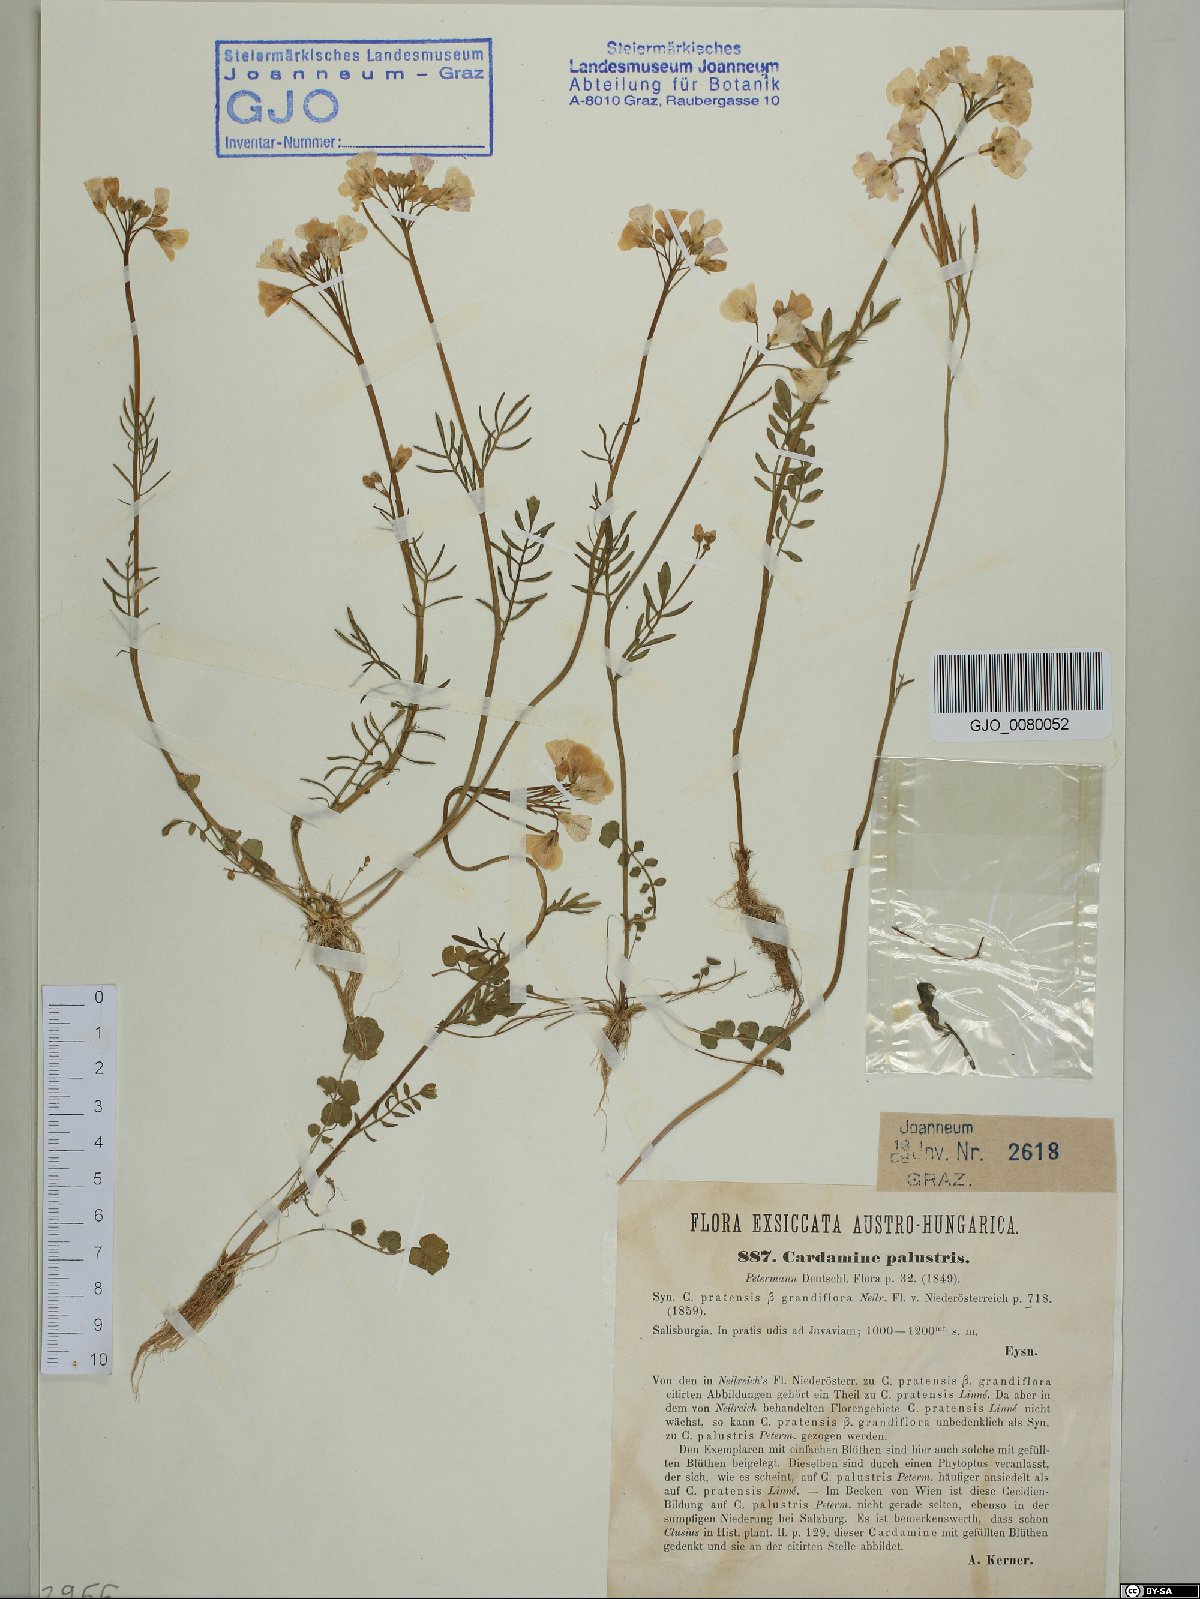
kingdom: Plantae
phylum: Tracheophyta
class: Magnoliopsida
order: Brassicales
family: Brassicaceae
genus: Cardamine
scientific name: Cardamine pratensis
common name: Cuckoo flower
